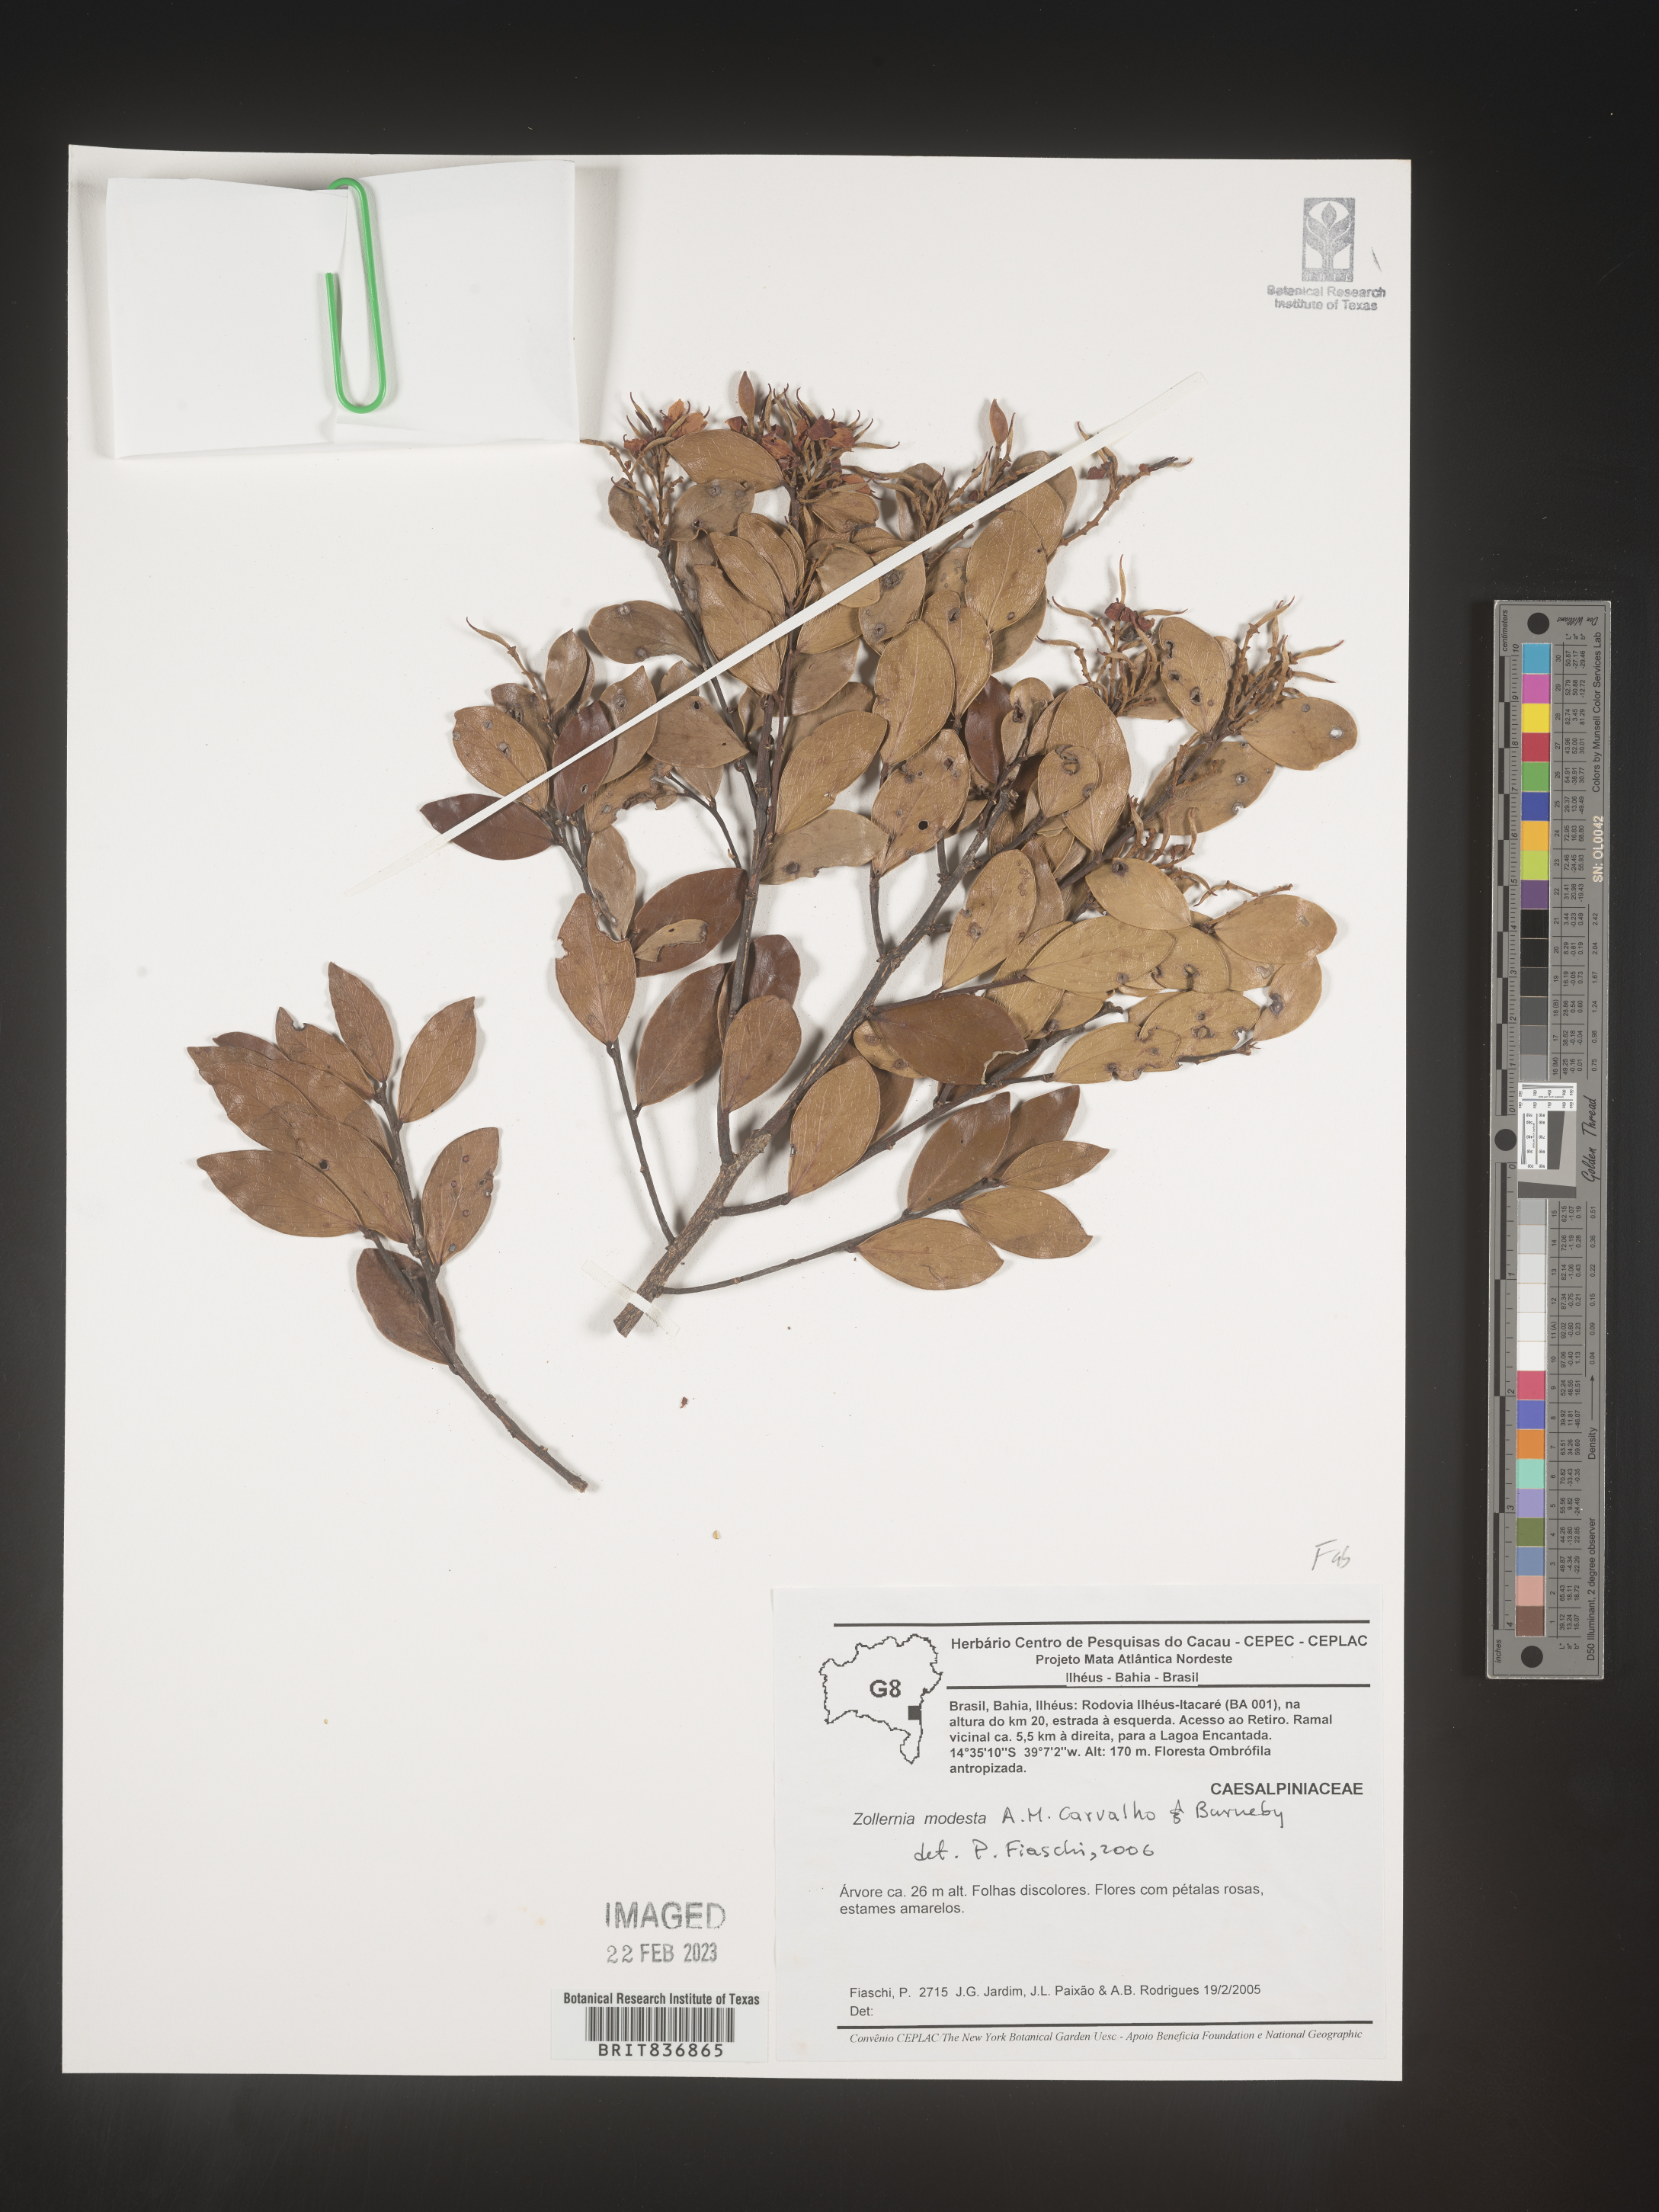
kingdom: Plantae
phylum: Tracheophyta
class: Magnoliopsida
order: Fabales
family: Fabaceae
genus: Zollernia
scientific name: Zollernia
